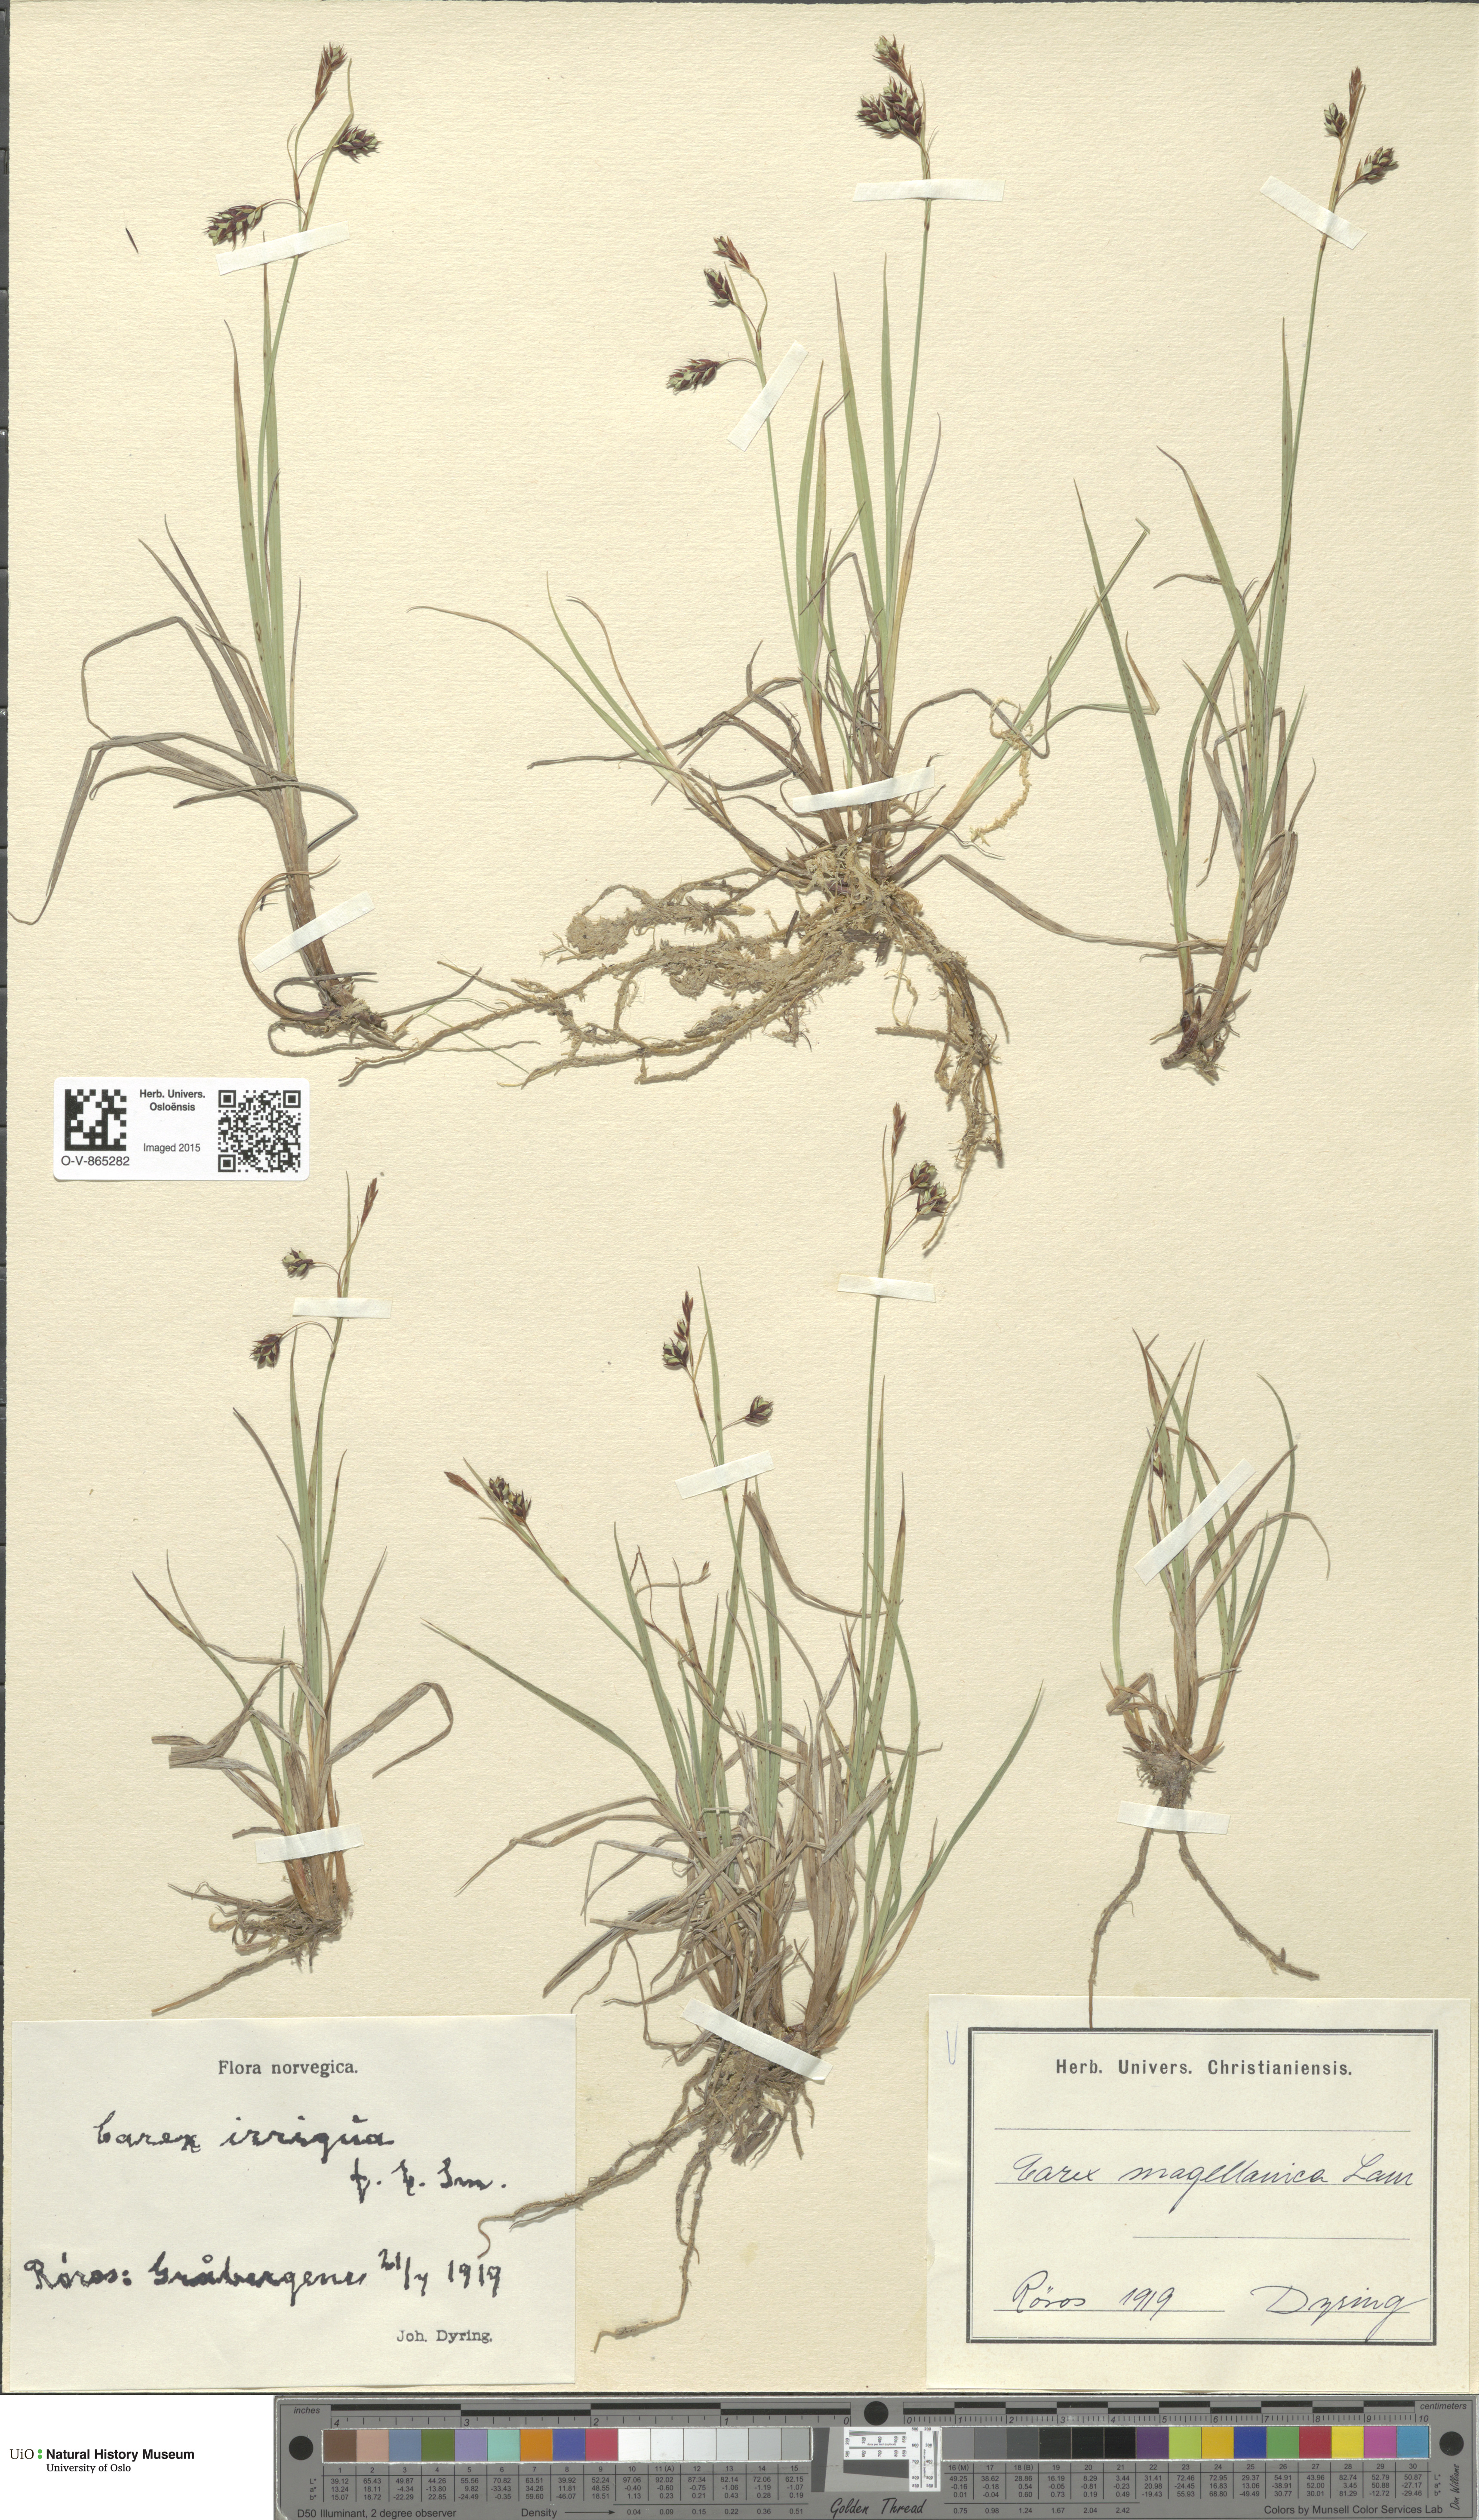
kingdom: Plantae
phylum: Tracheophyta
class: Liliopsida
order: Poales
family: Cyperaceae
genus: Carex
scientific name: Carex magellanica
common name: Bog sedge
